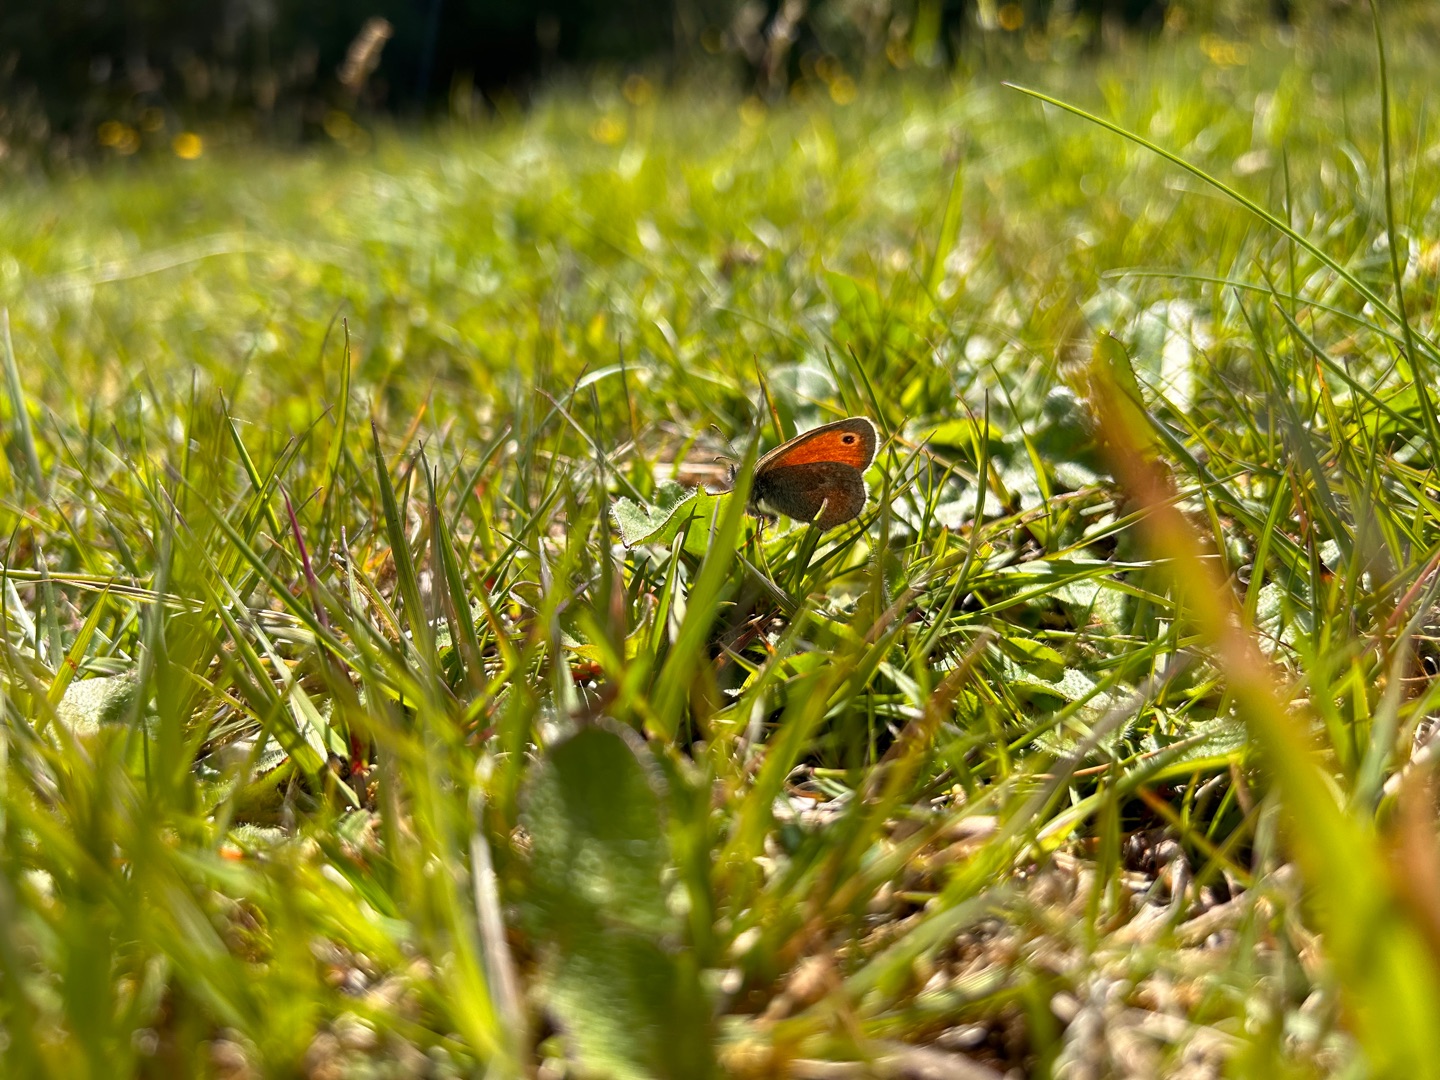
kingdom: Animalia
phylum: Arthropoda
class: Insecta
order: Lepidoptera
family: Nymphalidae
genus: Coenonympha
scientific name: Coenonympha pamphilus
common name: Okkergul randøje
